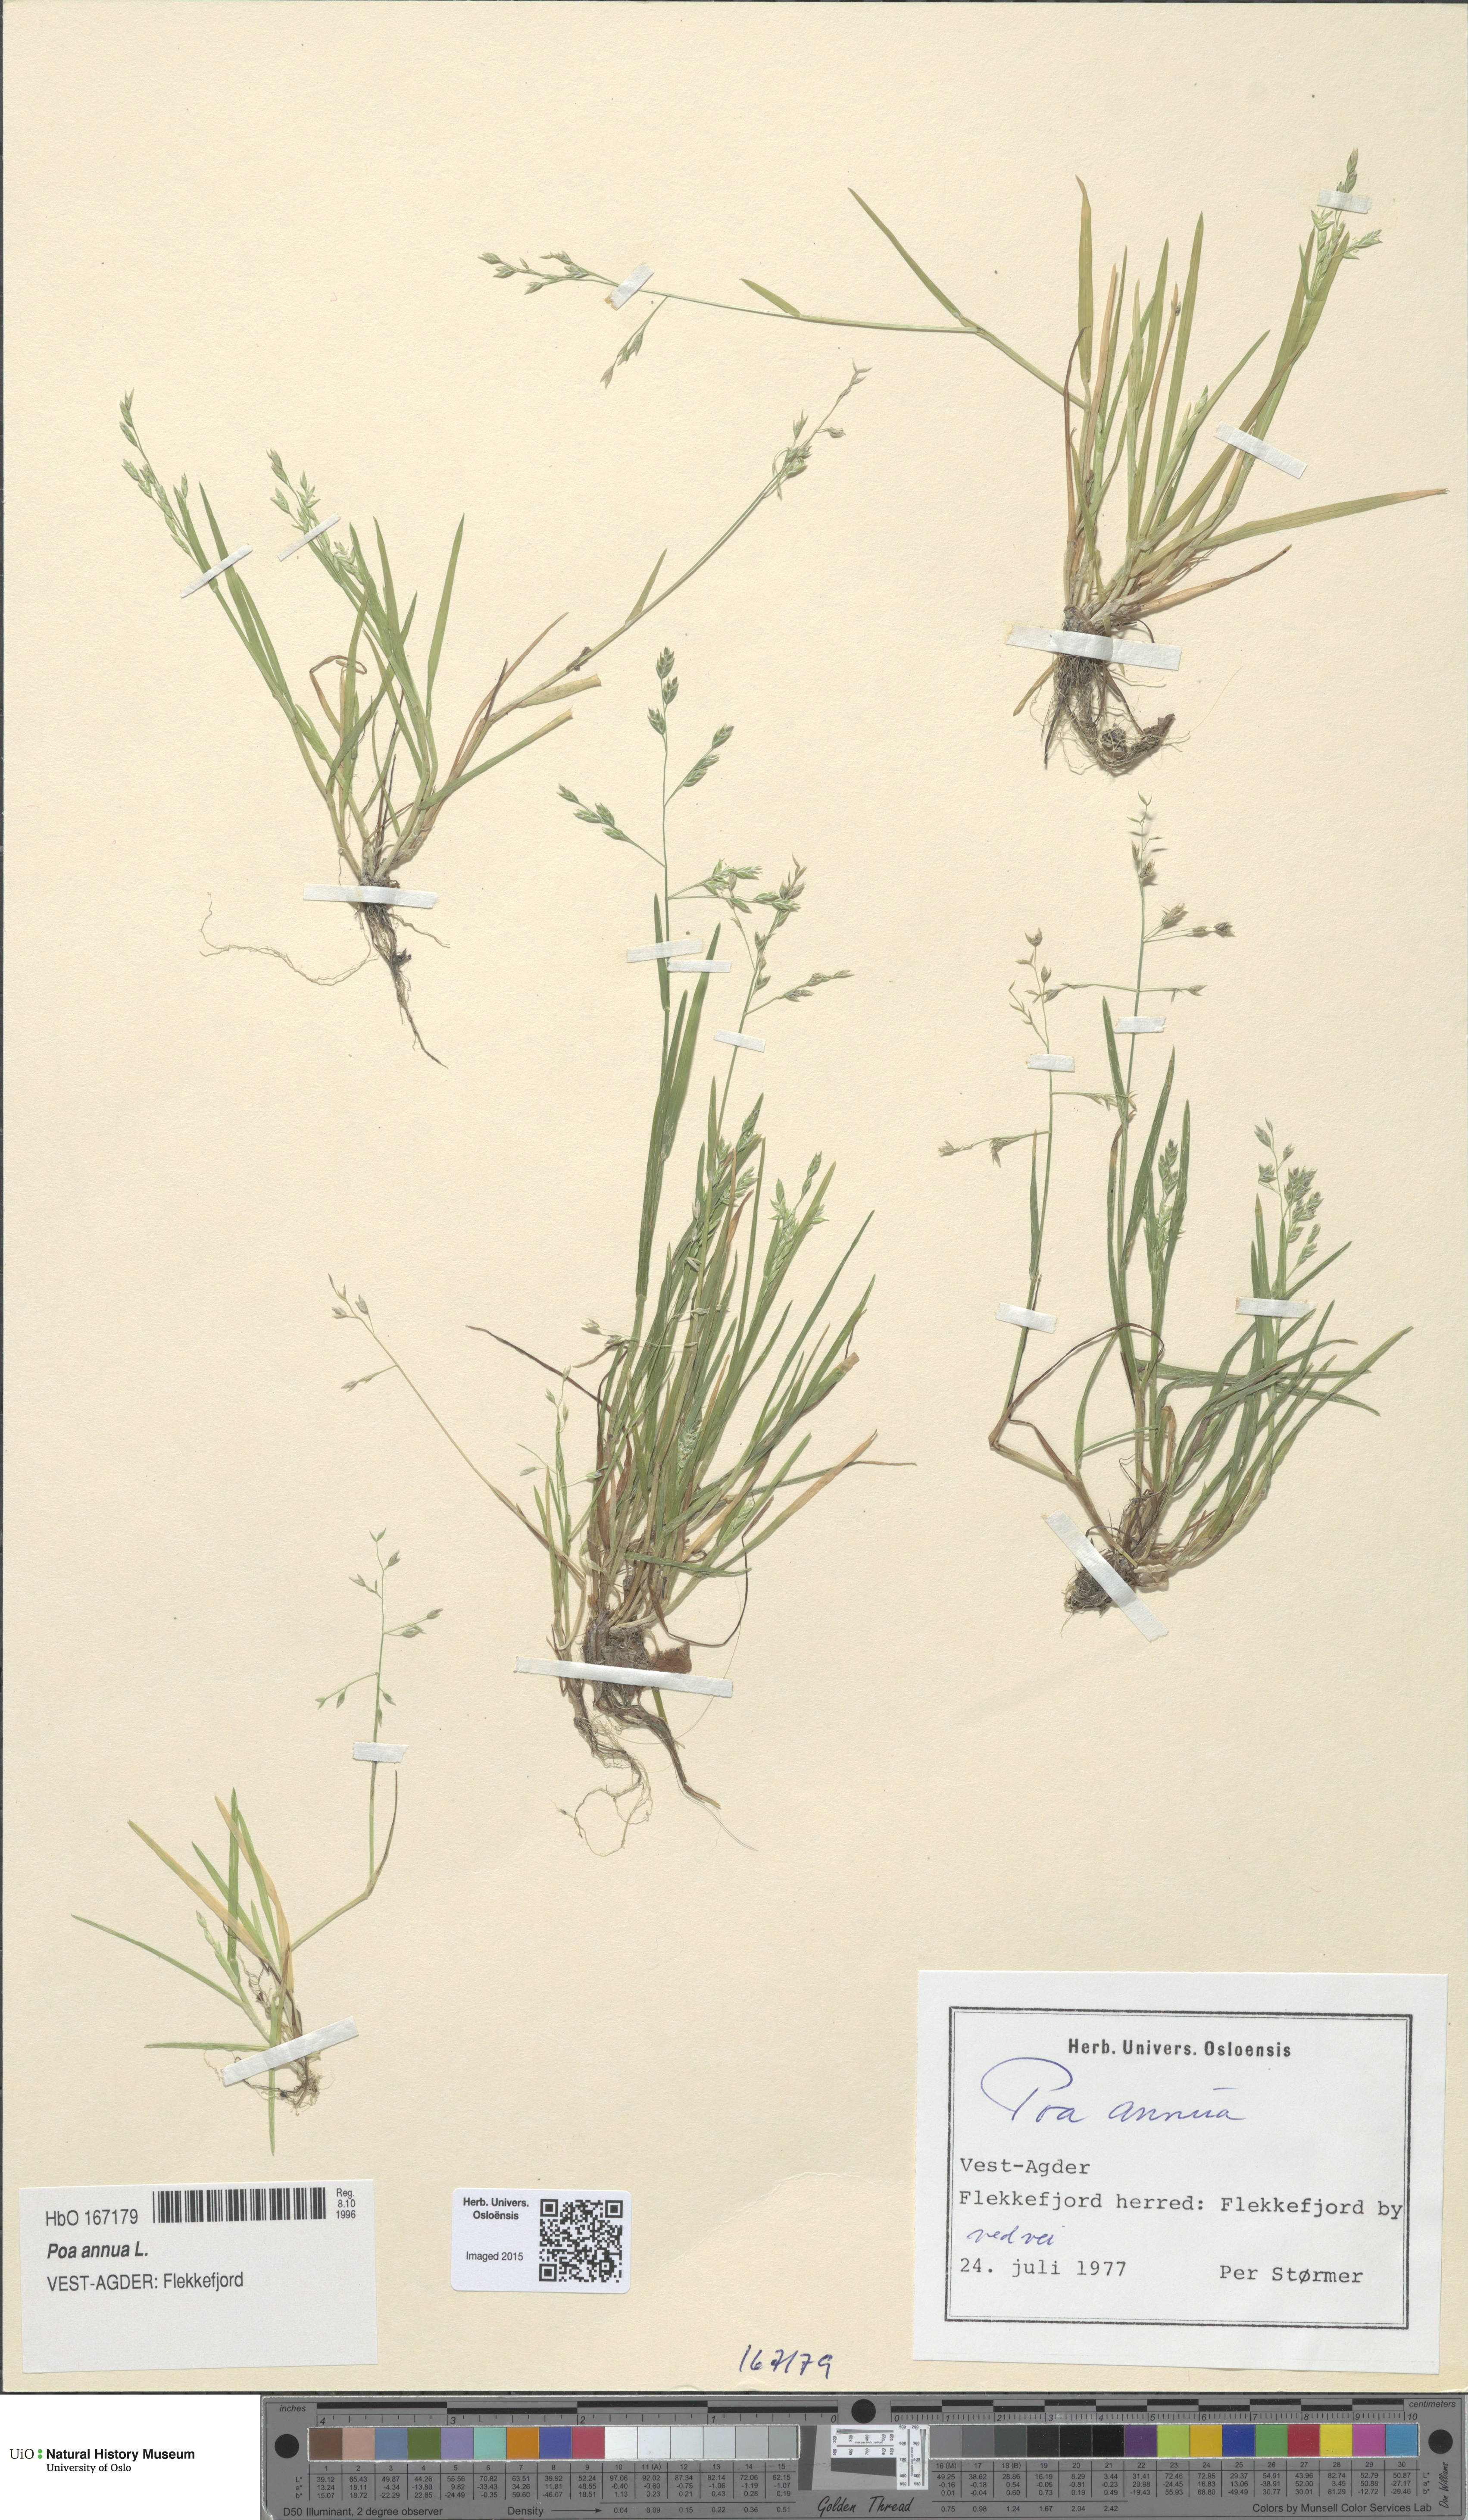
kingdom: Plantae
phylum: Tracheophyta
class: Liliopsida
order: Poales
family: Poaceae
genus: Poa
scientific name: Poa annua
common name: Annual bluegrass
